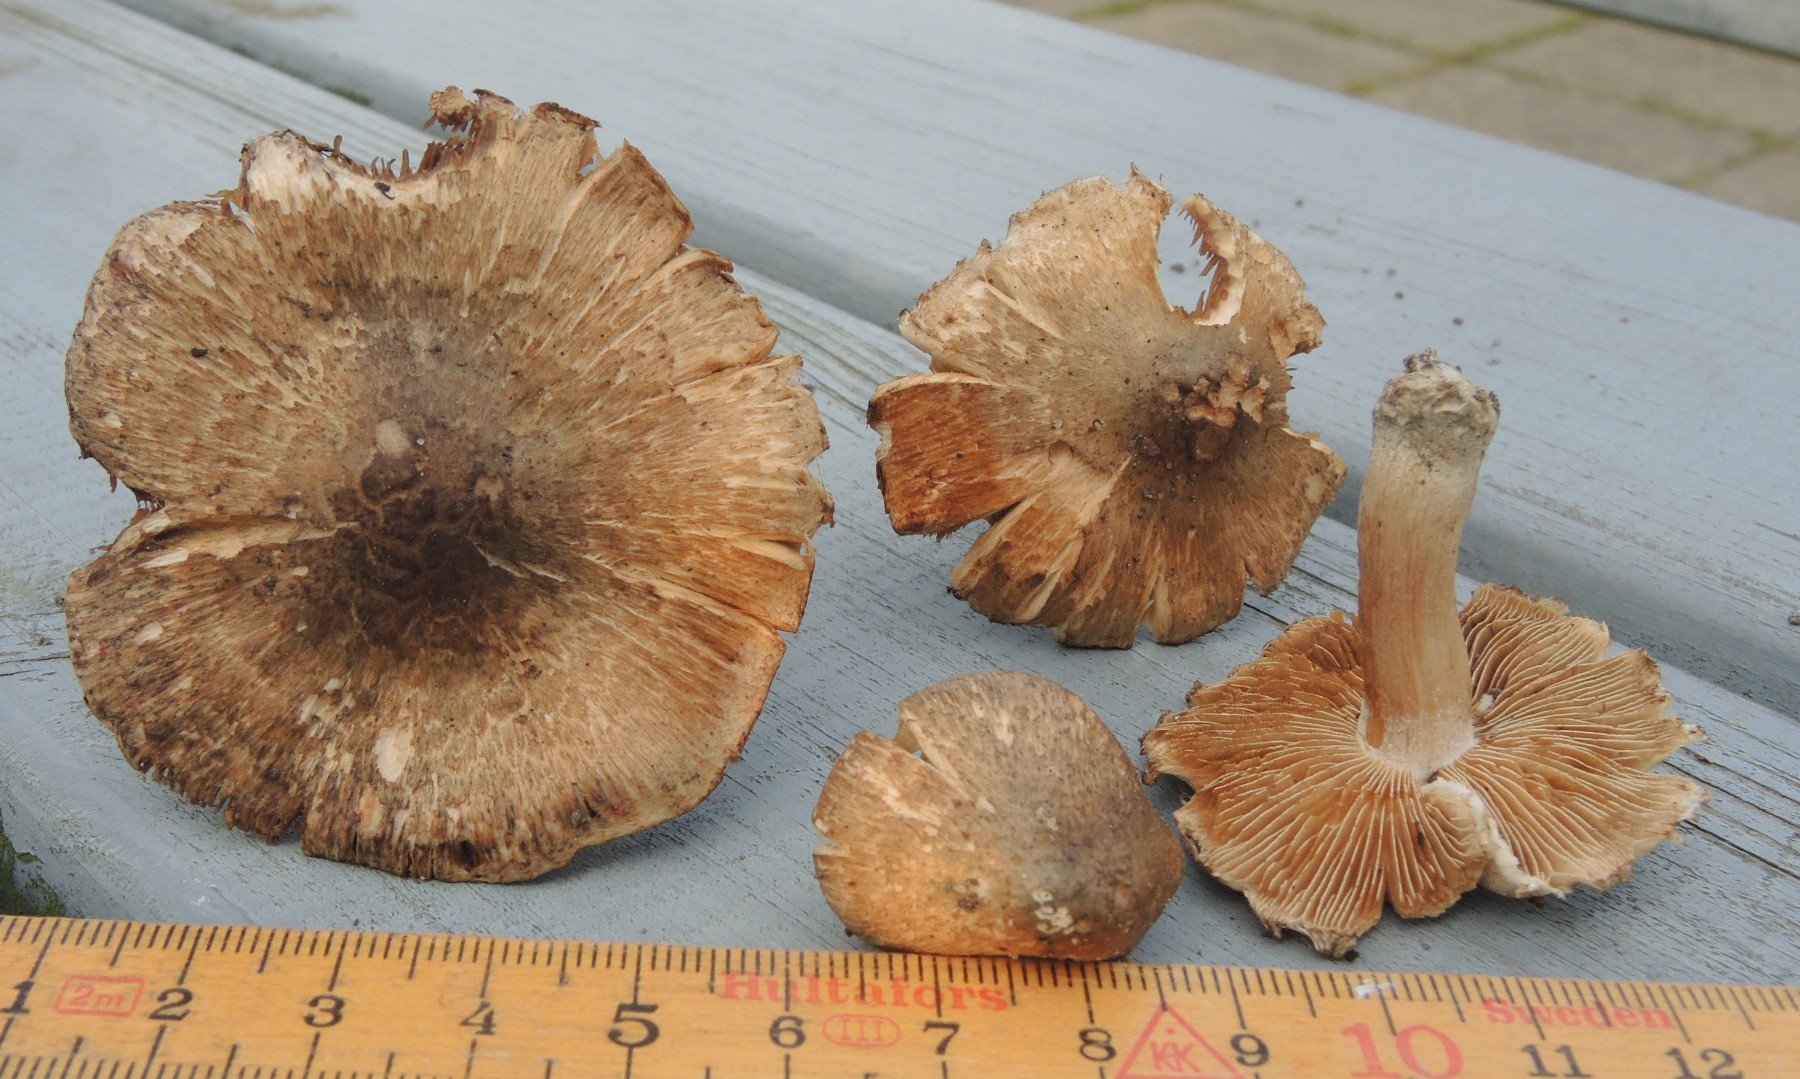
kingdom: Fungi
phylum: Basidiomycota
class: Agaricomycetes
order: Agaricales
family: Inocybaceae
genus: Inocybe
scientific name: Inocybe erinaceomorpha
